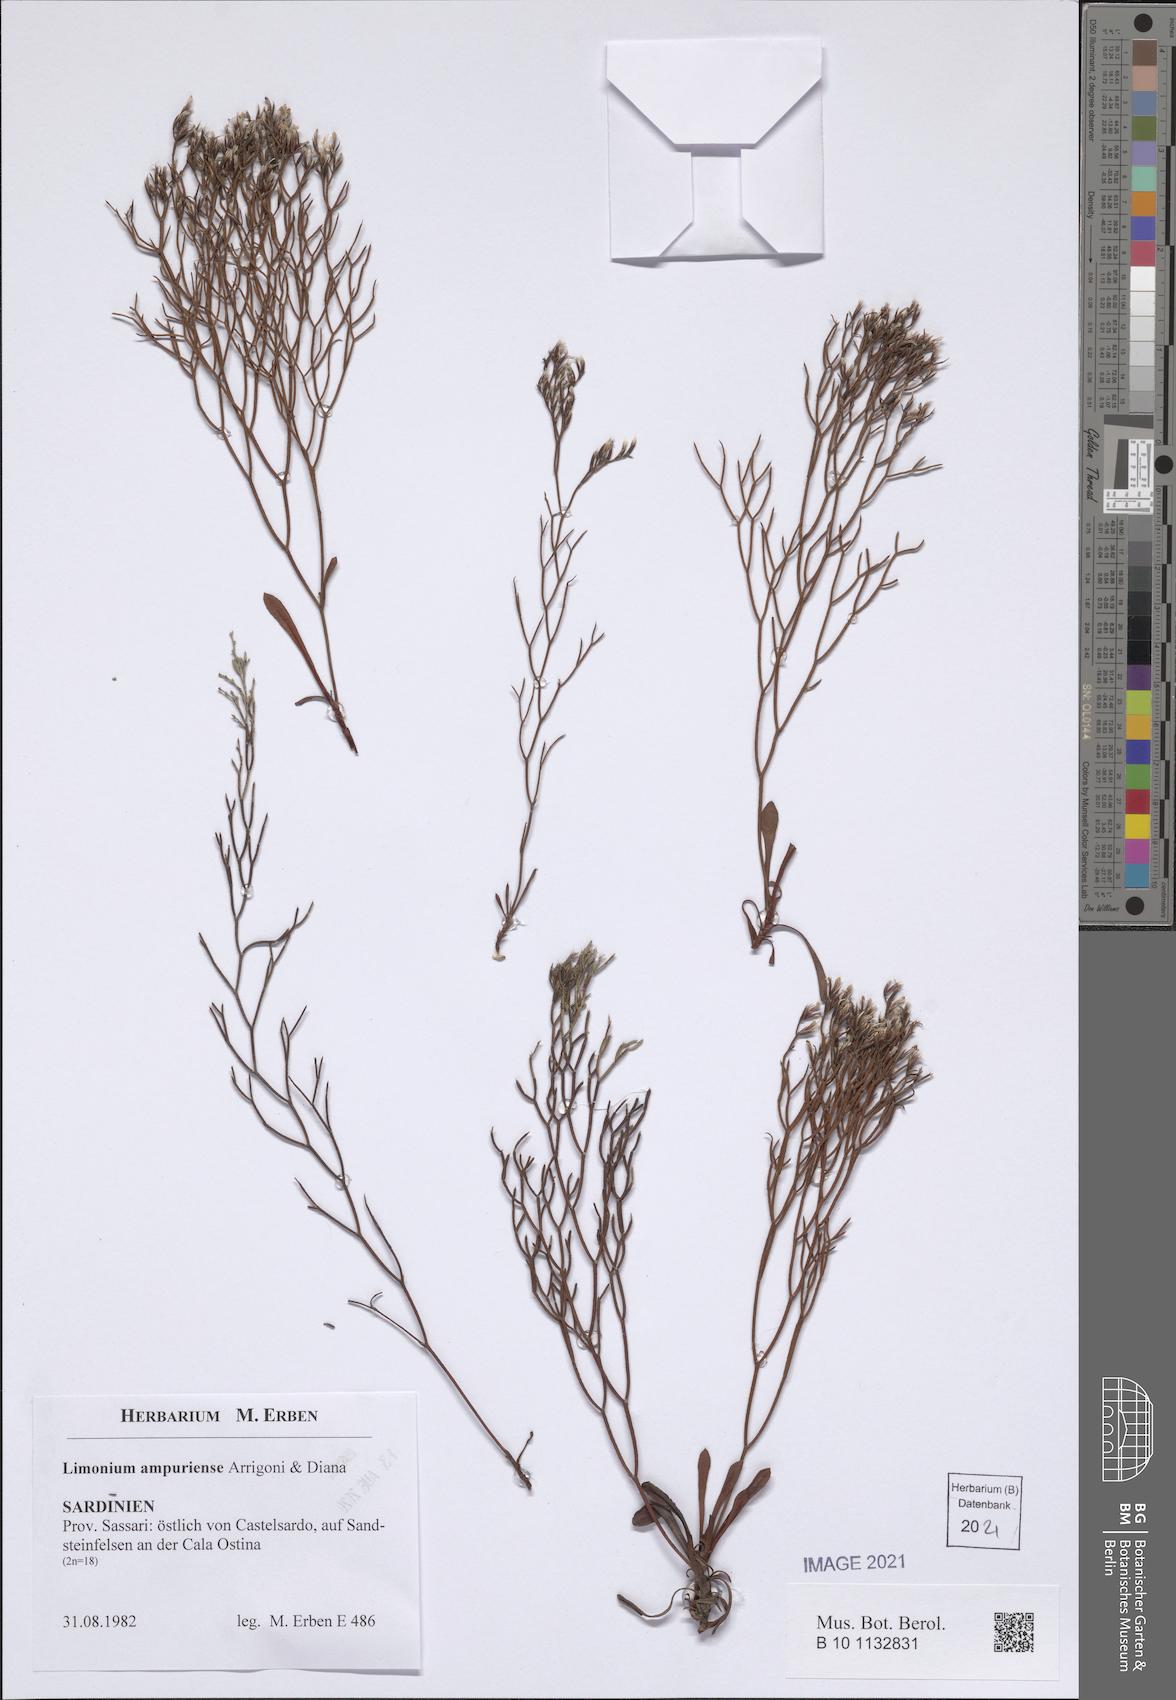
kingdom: Plantae
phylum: Tracheophyta
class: Magnoliopsida
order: Caryophyllales
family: Plumbaginaceae
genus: Limonium
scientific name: Limonium ampuriense
